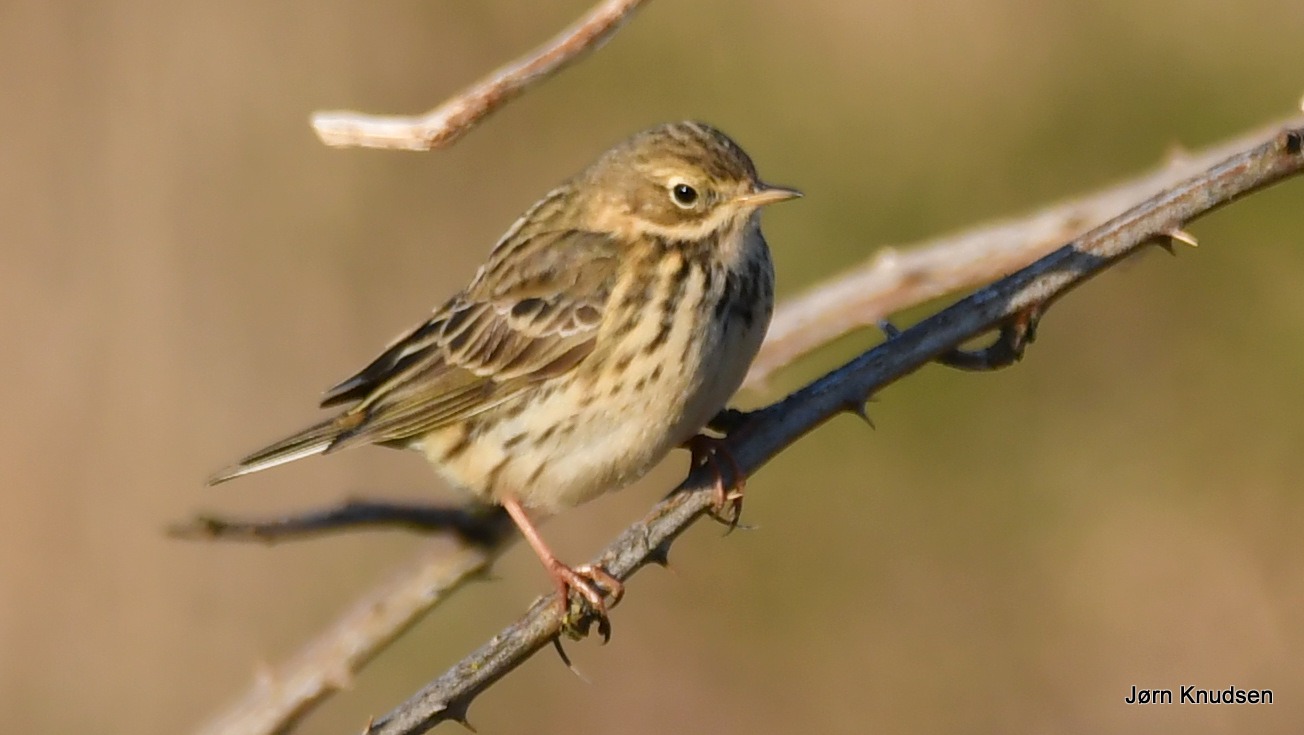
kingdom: Animalia
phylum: Chordata
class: Aves
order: Passeriformes
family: Motacillidae
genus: Anthus
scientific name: Anthus pratensis
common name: Engpiber
